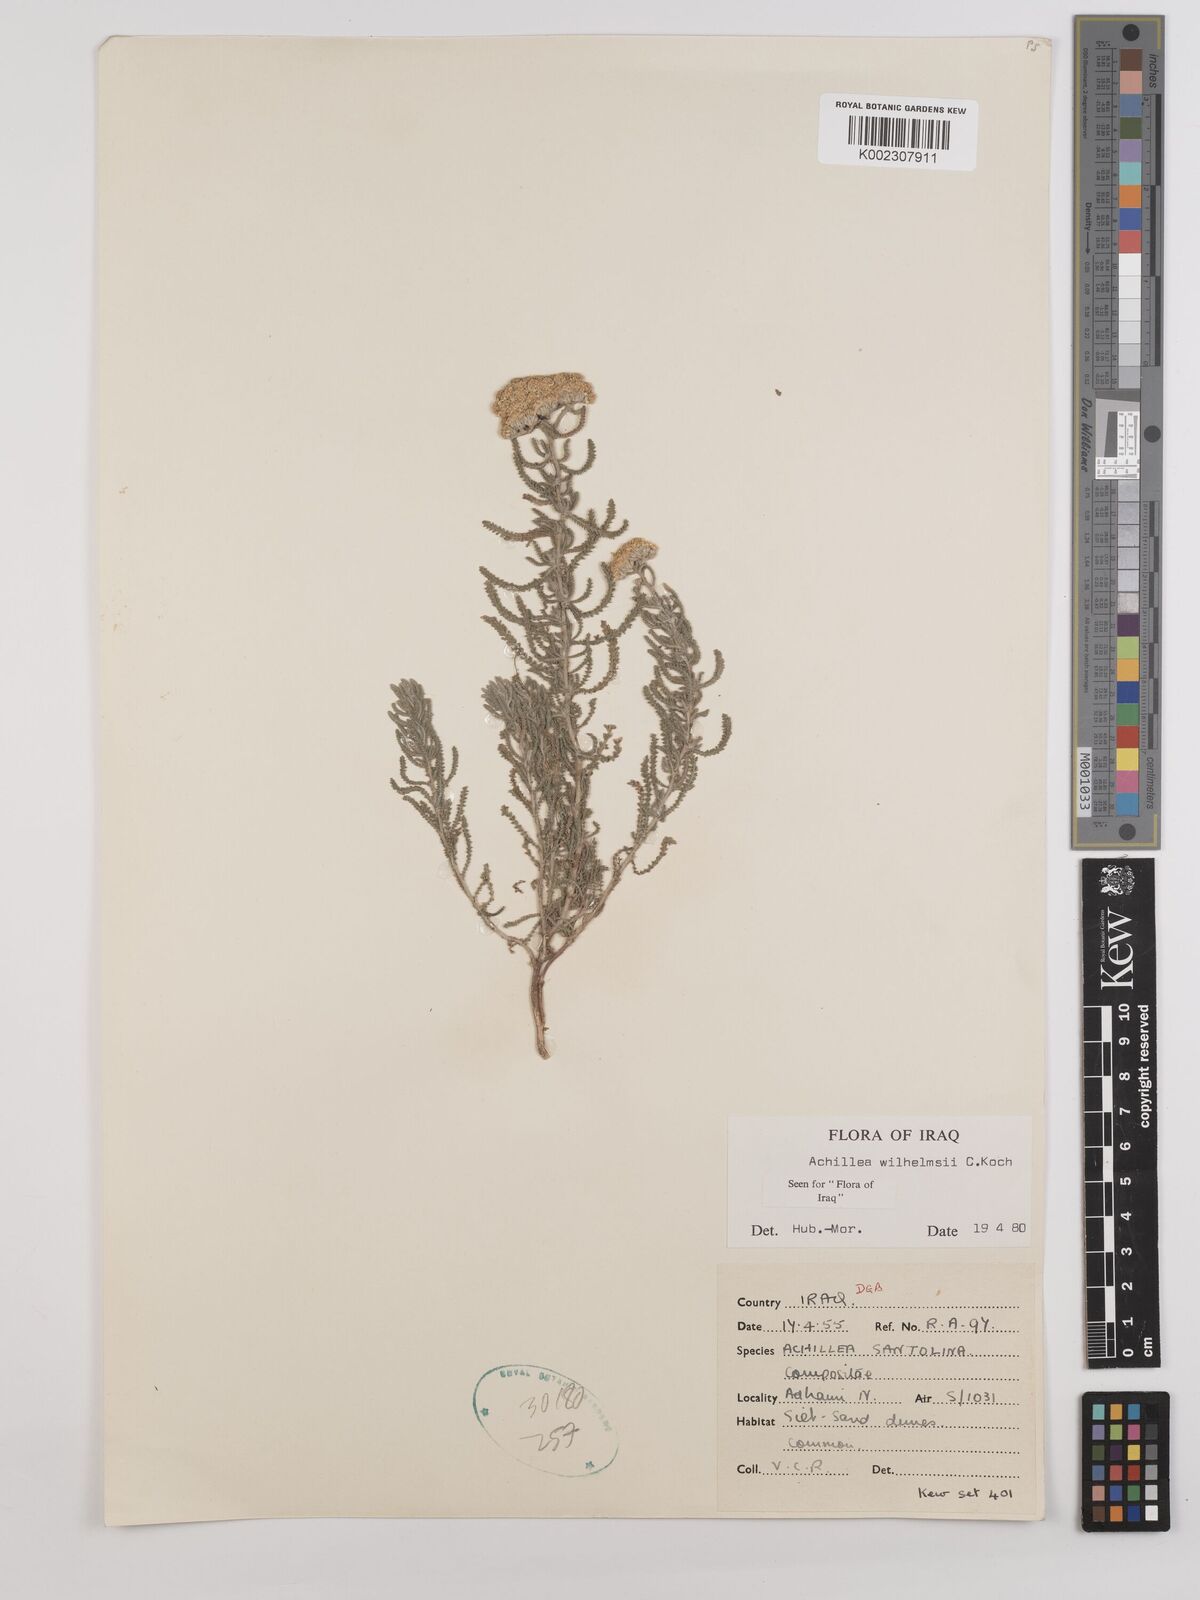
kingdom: Plantae
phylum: Tracheophyta
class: Magnoliopsida
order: Asterales
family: Asteraceae
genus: Achillea
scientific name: Achillea wilhelmsii
